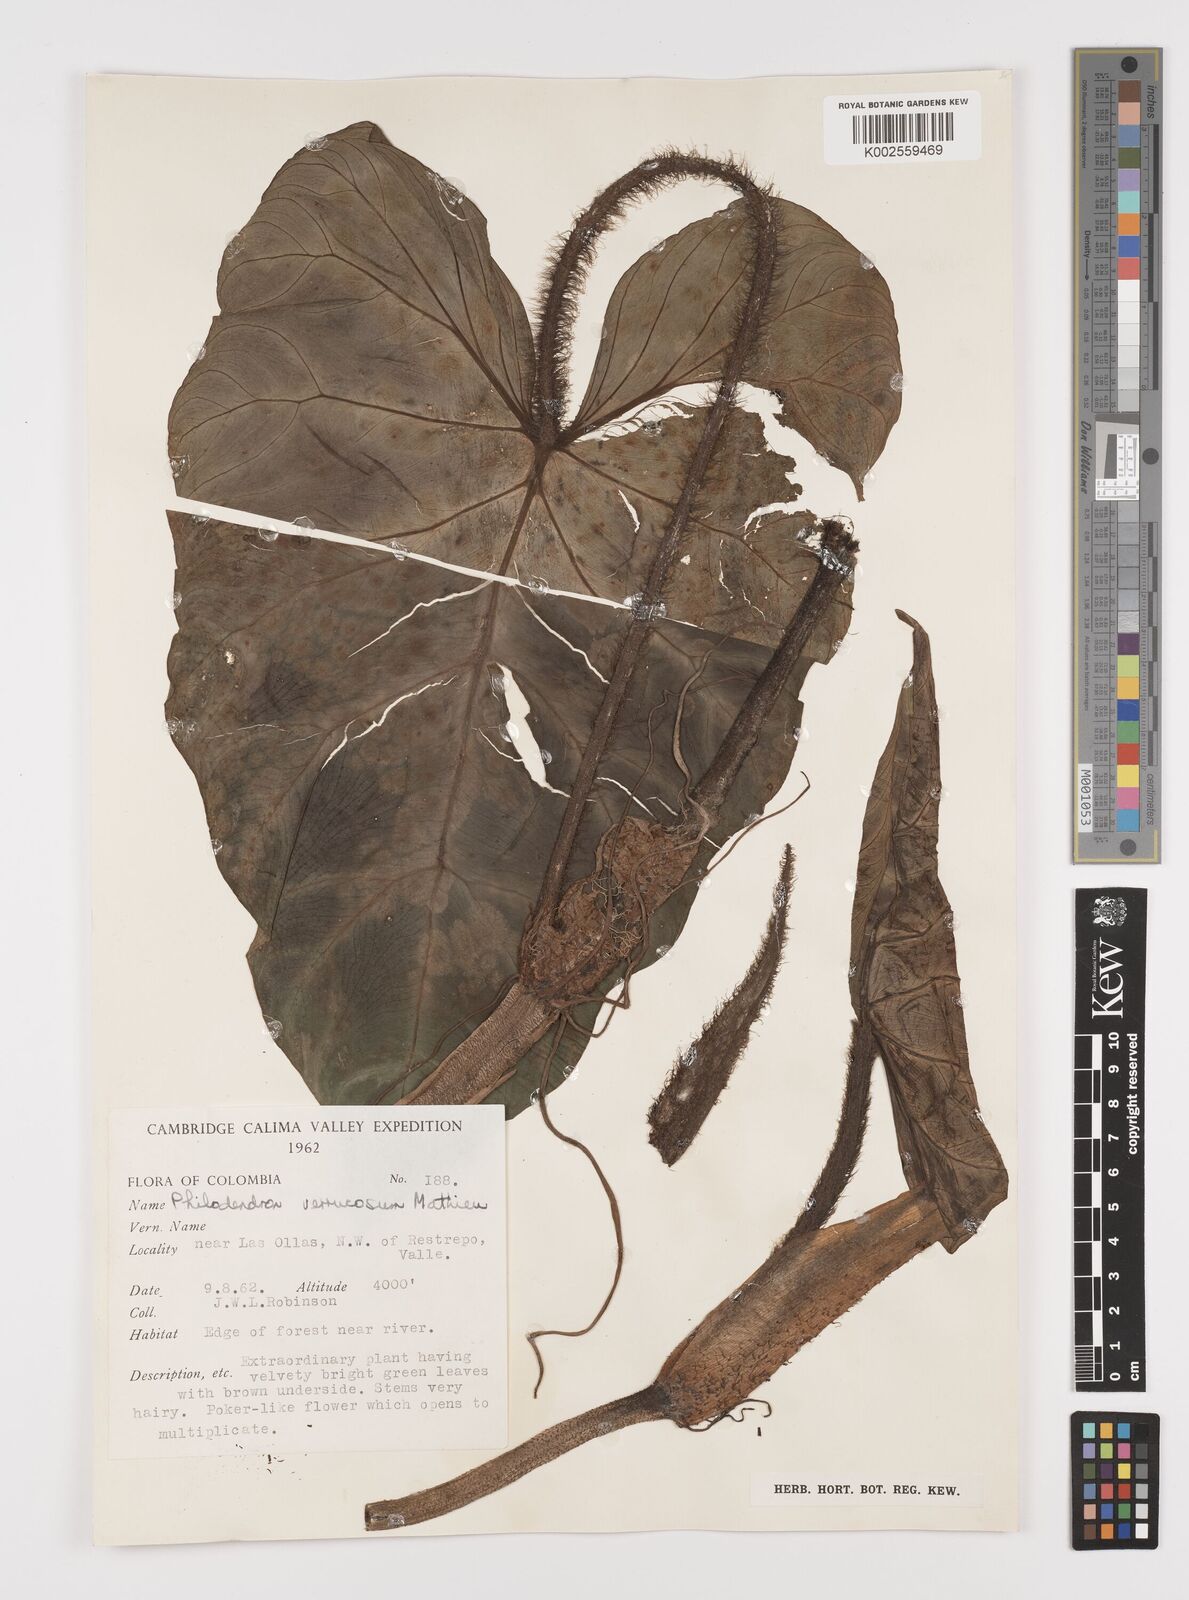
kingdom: Plantae
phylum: Tracheophyta
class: Liliopsida
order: Alismatales
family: Araceae
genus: Philodendron
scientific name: Philodendron verrucosum
